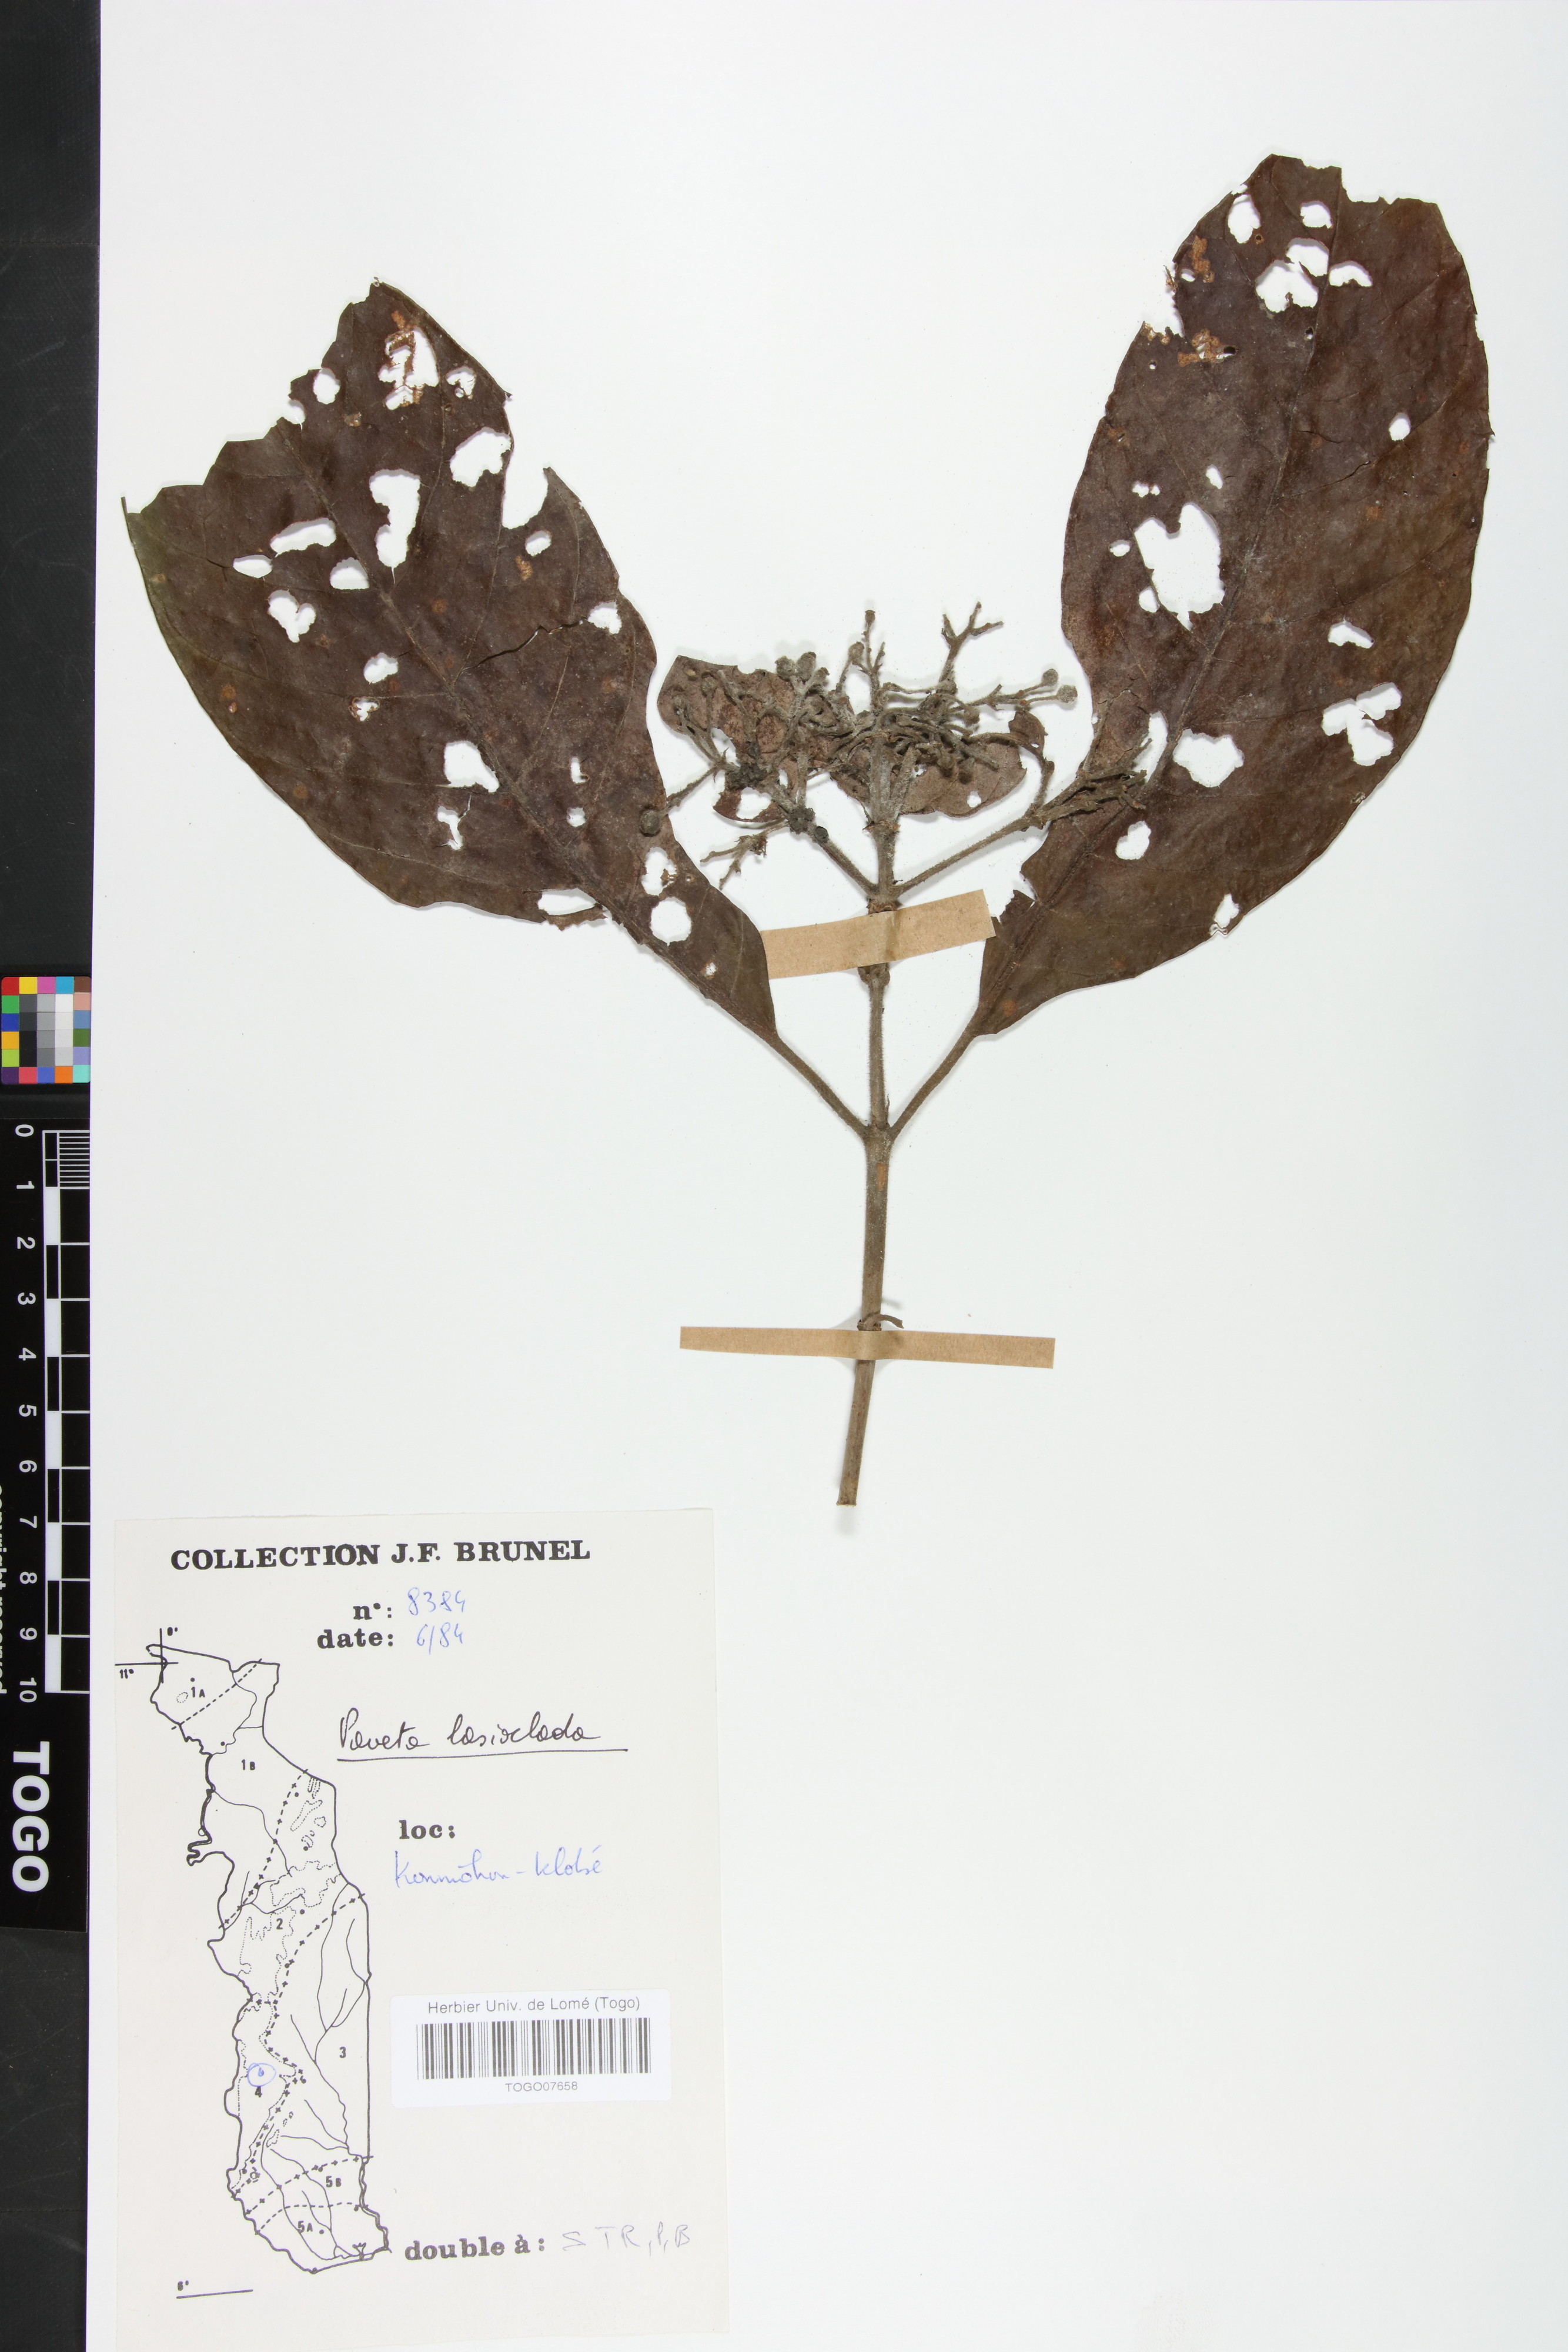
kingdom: Plantae
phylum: Tracheophyta
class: Magnoliopsida
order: Gentianales
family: Rubiaceae
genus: Pavetta
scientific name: Pavetta lasioclada
